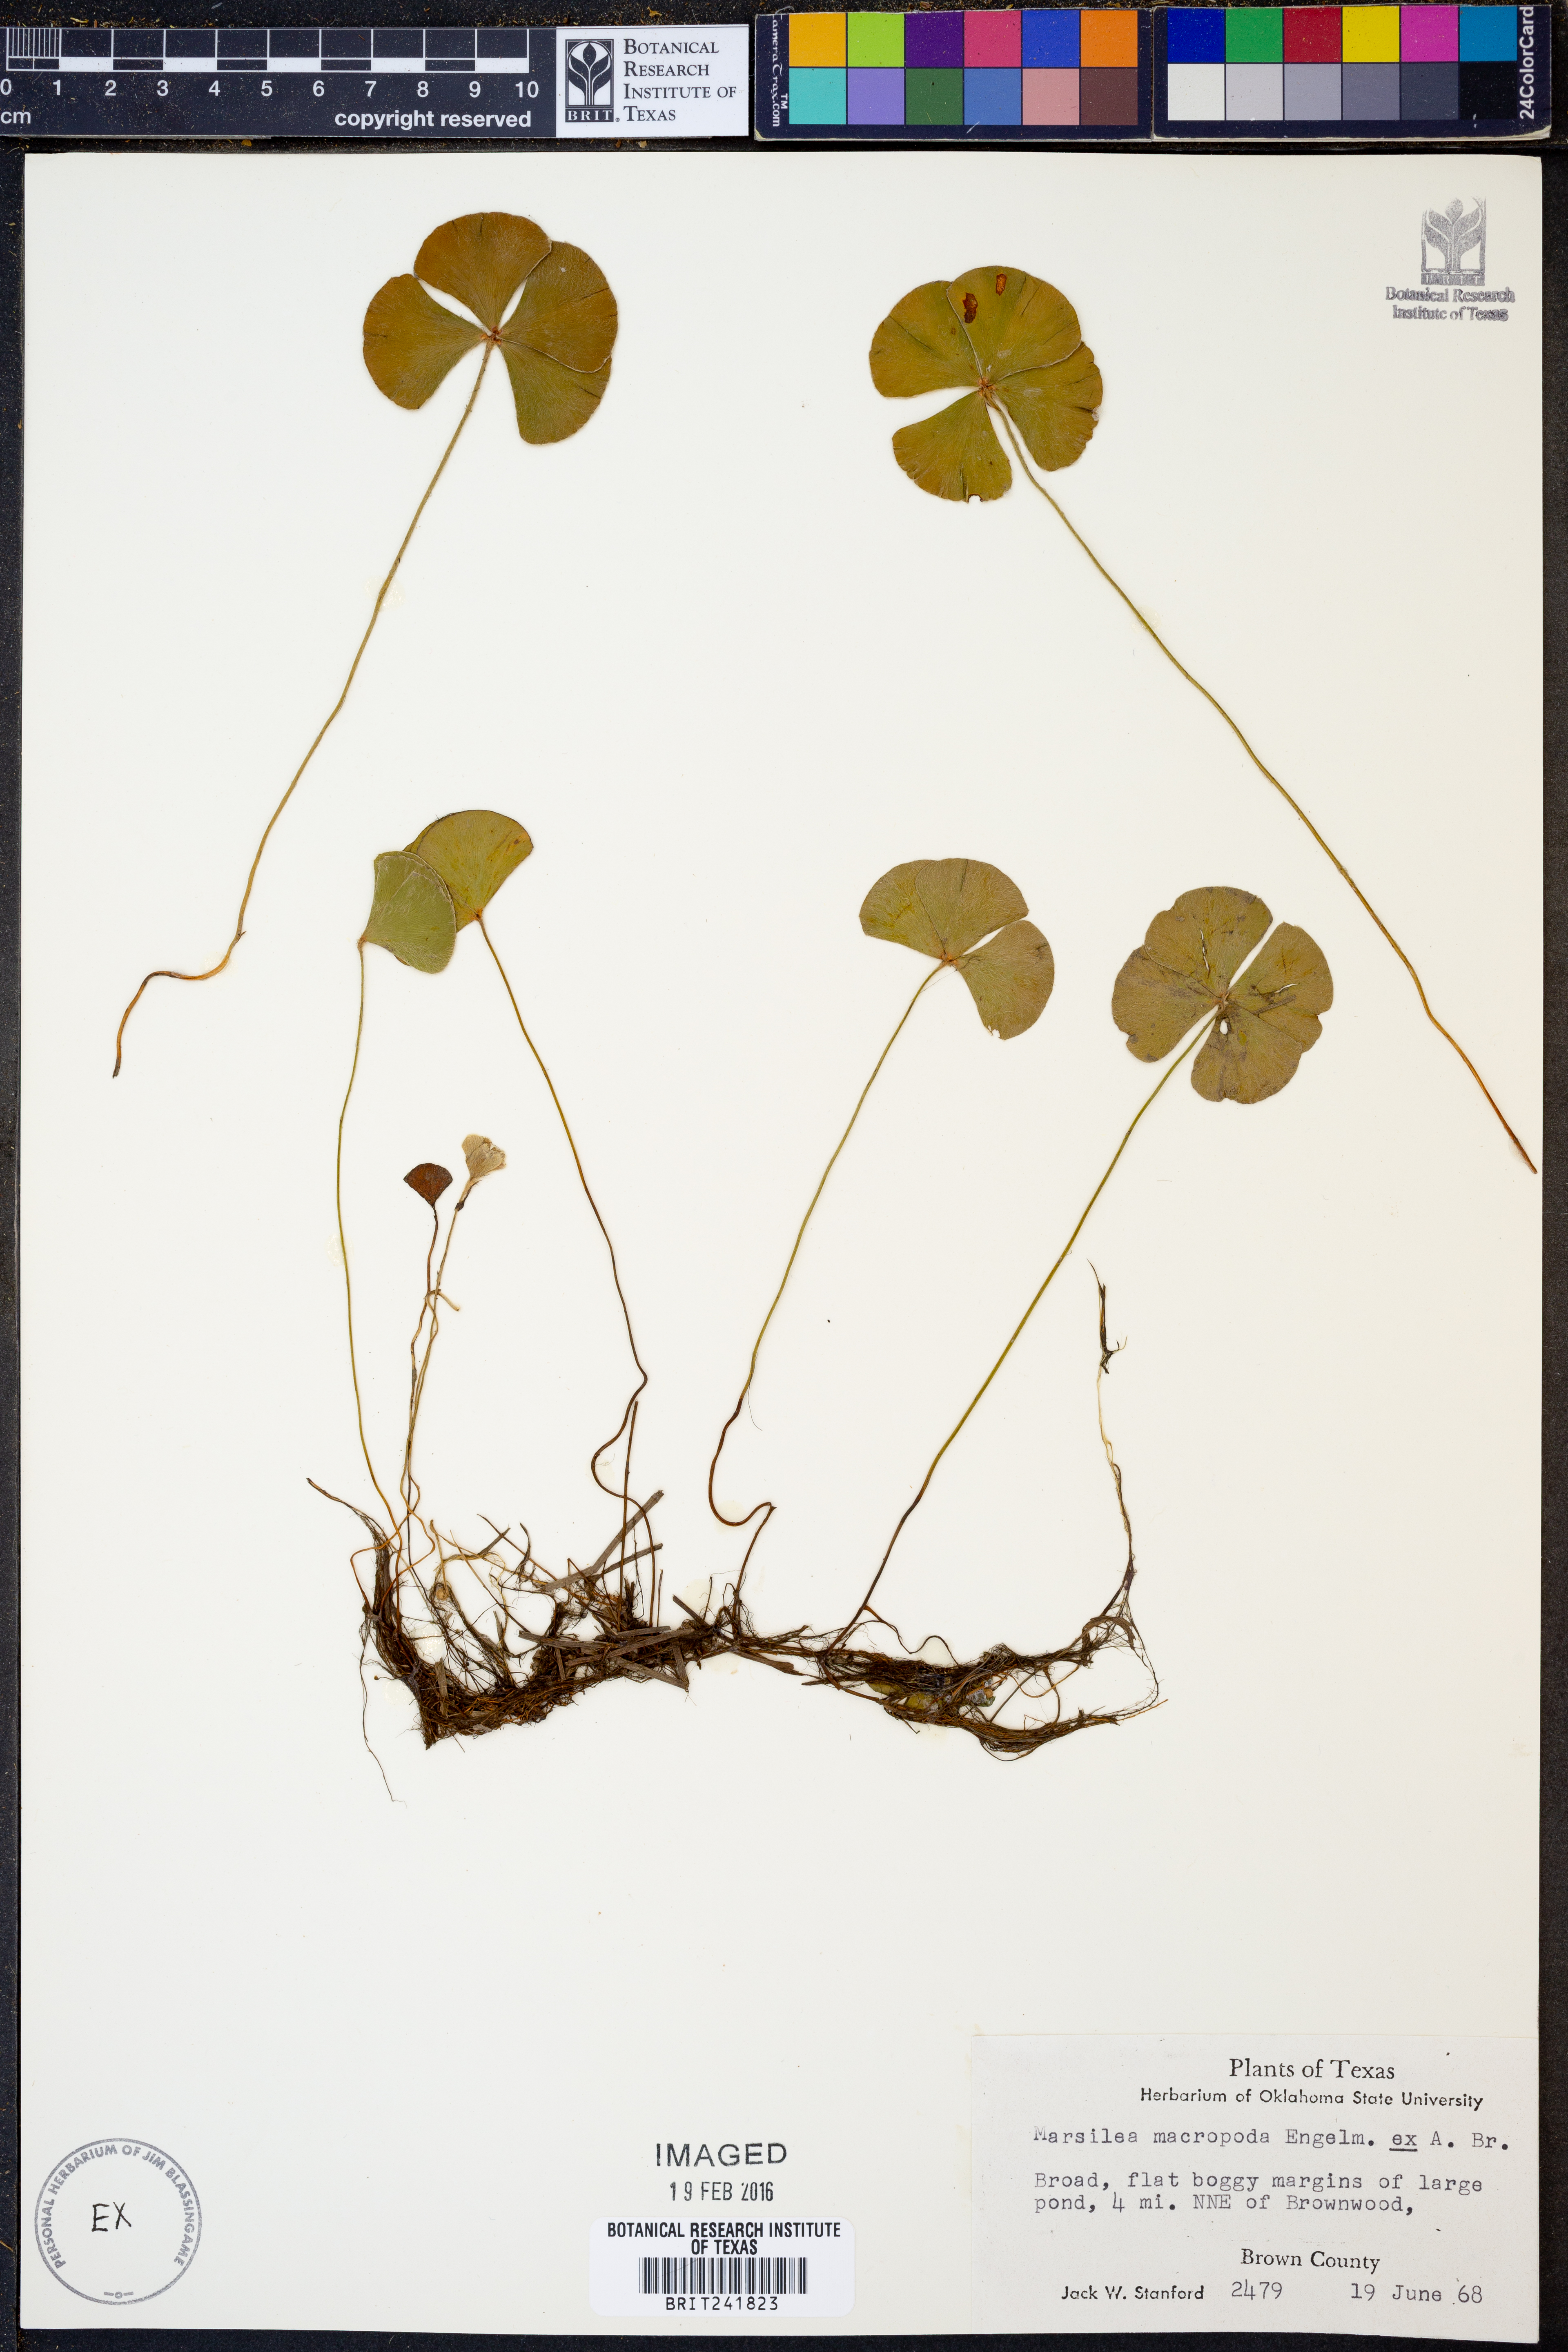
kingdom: Plantae
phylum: Tracheophyta
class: Polypodiopsida
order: Salviniales
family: Marsileaceae
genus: Marsilea
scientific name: Marsilea macropoda
